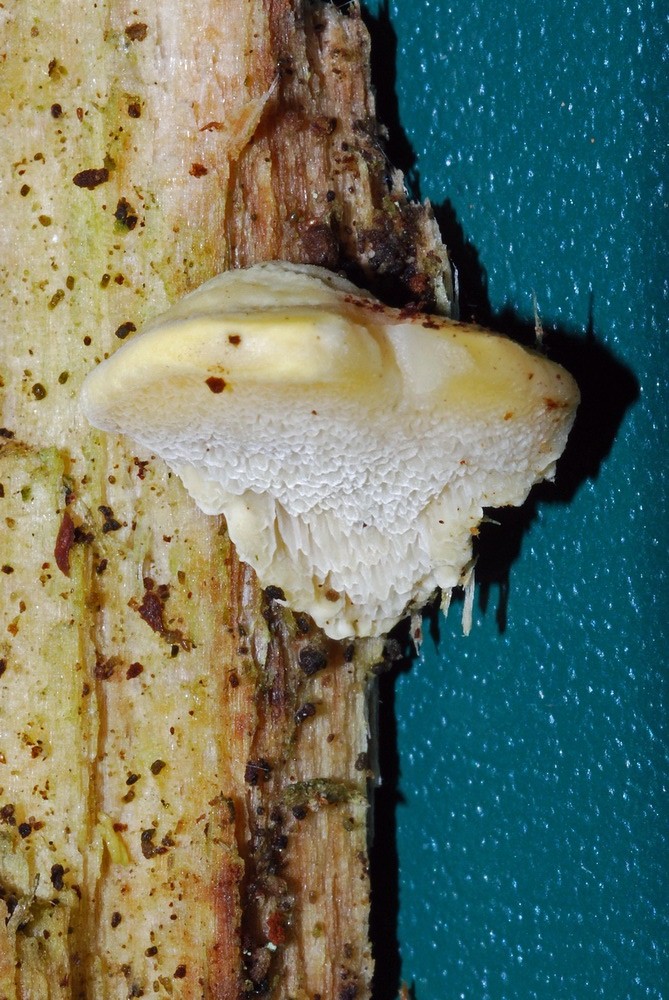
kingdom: Fungi
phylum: Basidiomycota
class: Agaricomycetes
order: Polyporales
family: Steccherinaceae
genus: Antrodiella
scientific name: Antrodiella serpula
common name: gulrandet elastikporesvamp
